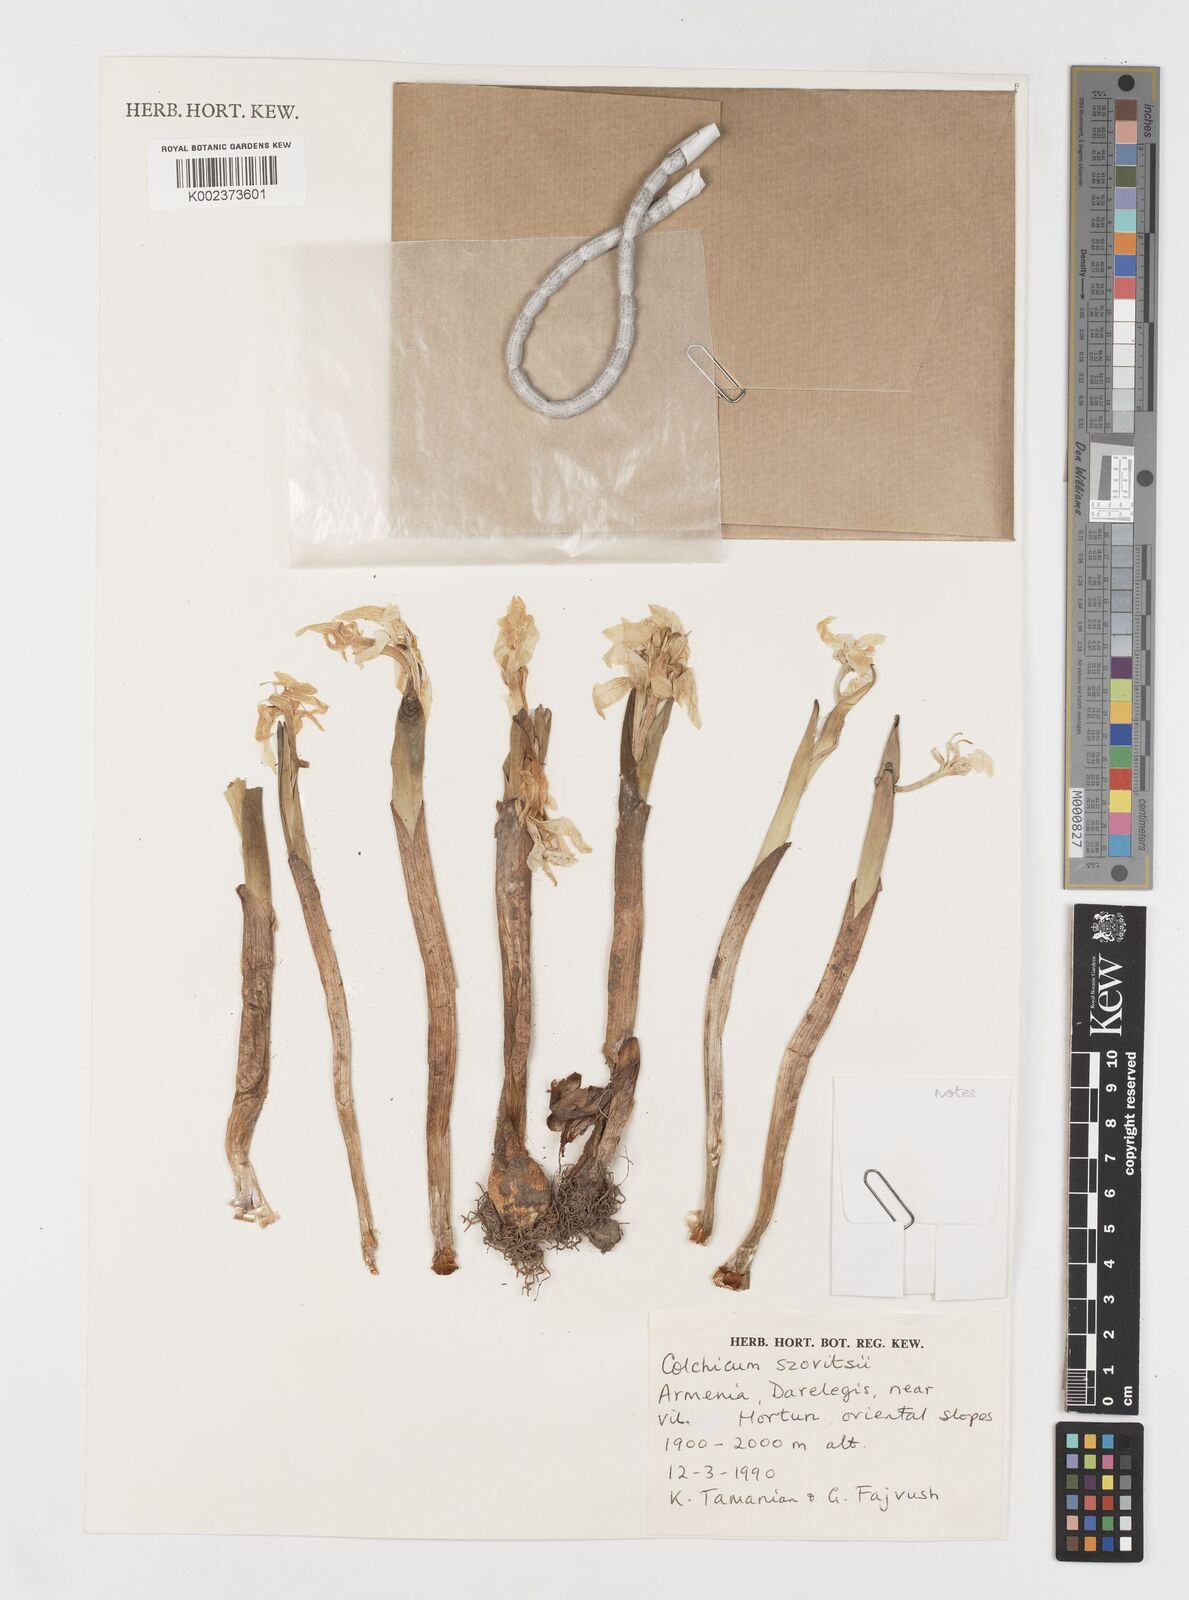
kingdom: Plantae
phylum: Tracheophyta
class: Liliopsida
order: Liliales
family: Colchicaceae
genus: Colchicum
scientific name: Colchicum szovitsii
